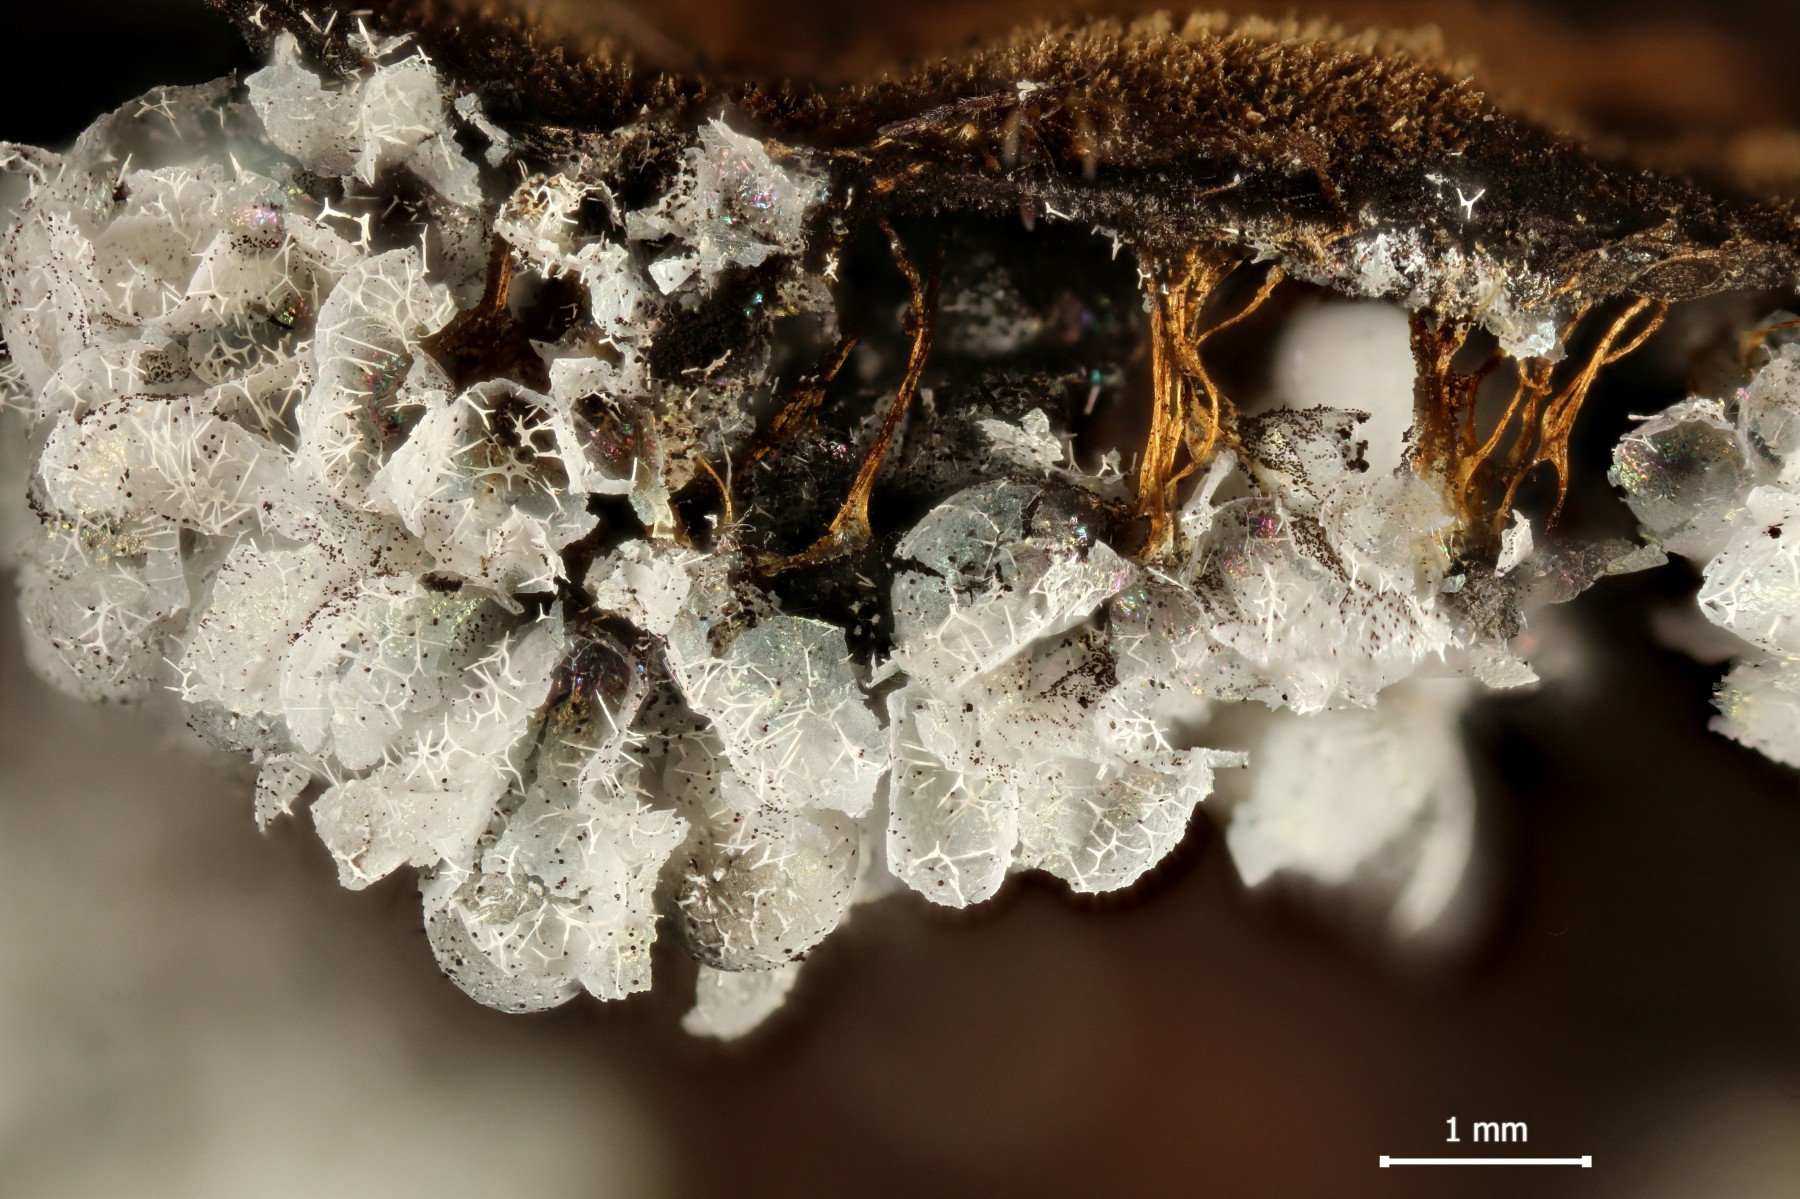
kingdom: Protozoa
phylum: Mycetozoa
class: Myxomycetes
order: Physarales
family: Physaraceae
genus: Badhamia
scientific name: Badhamia utricularis
